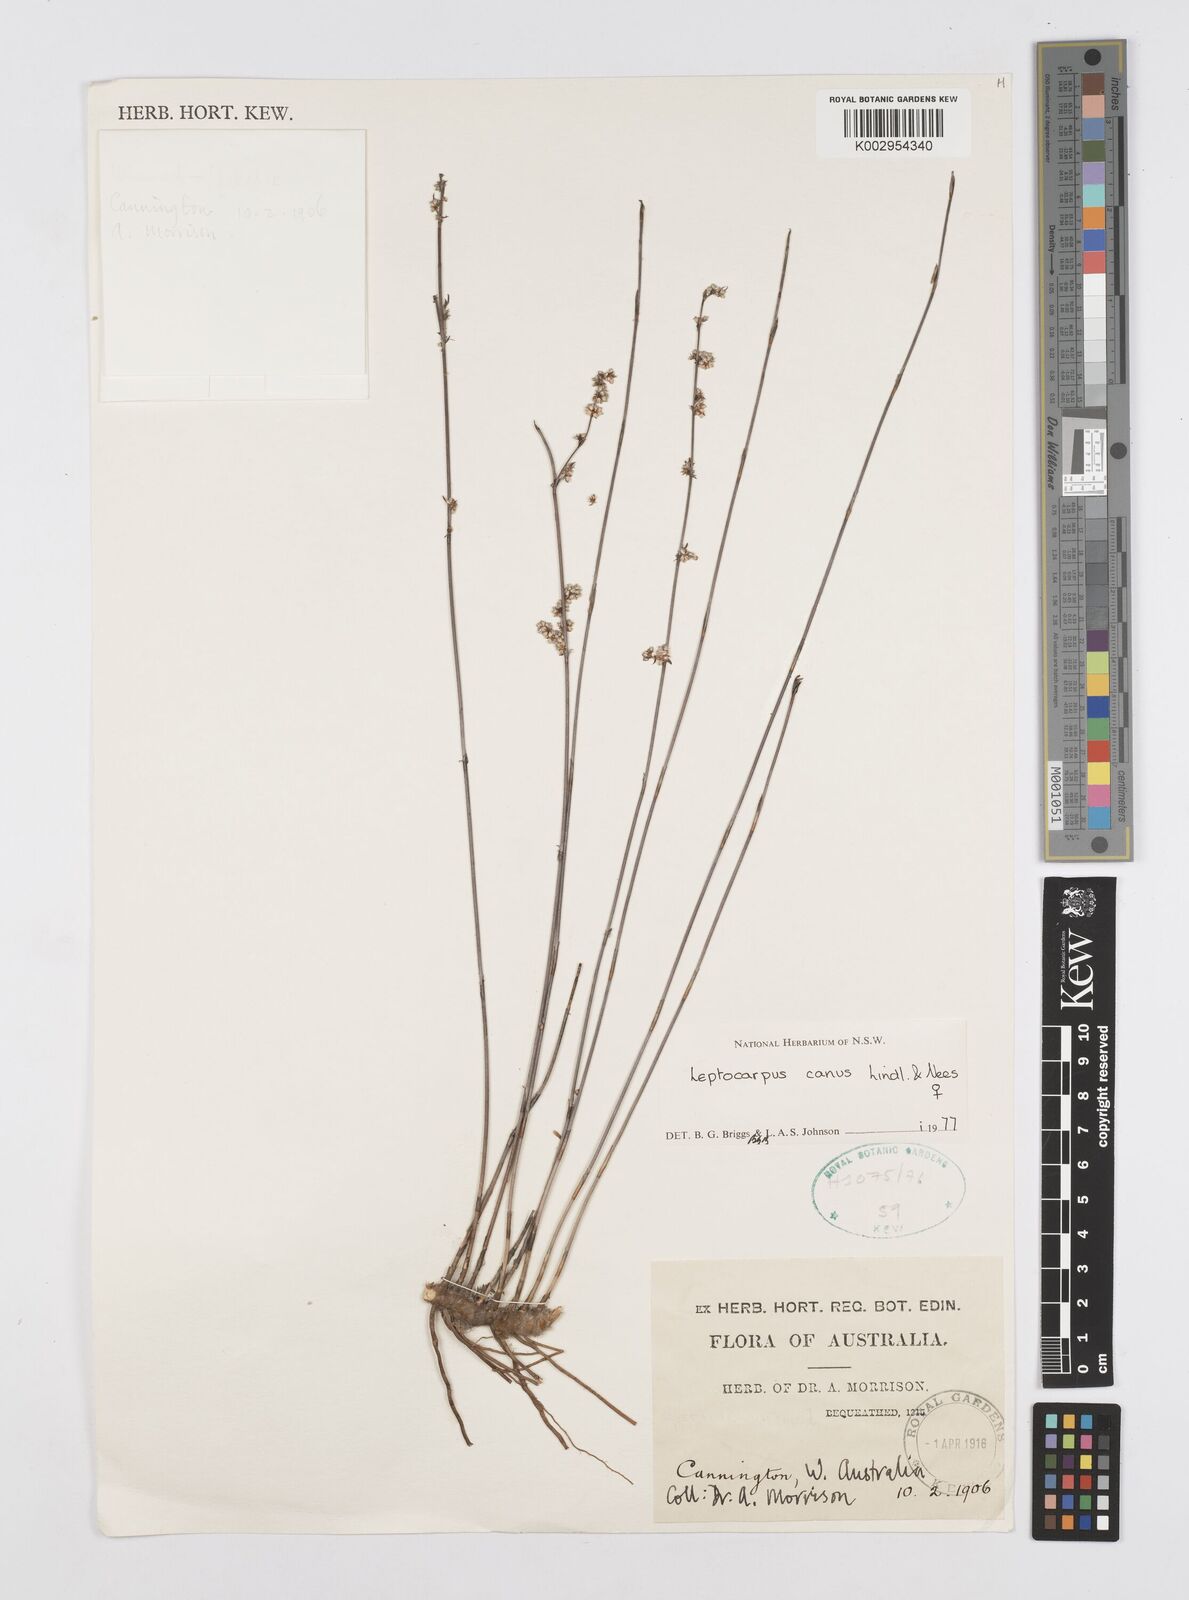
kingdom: Plantae
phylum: Tracheophyta
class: Liliopsida
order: Poales
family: Restionaceae
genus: Leptocarpus
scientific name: Leptocarpus canus
